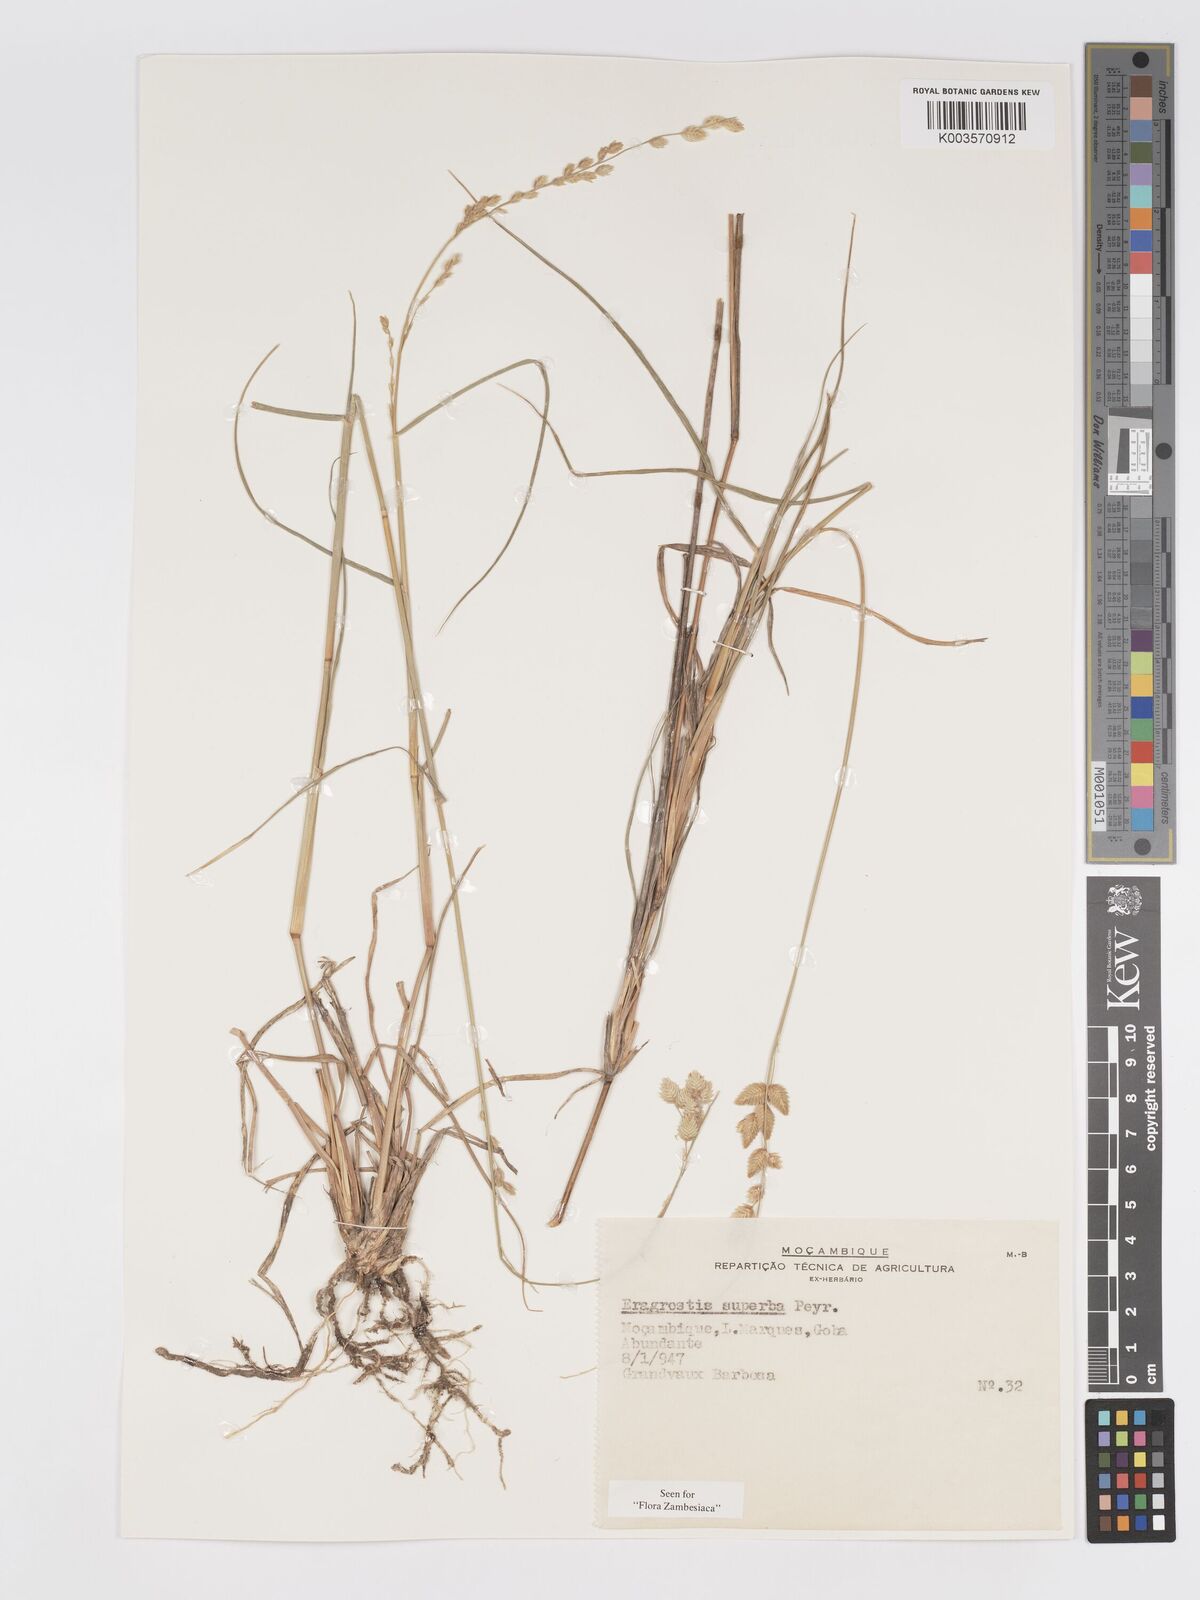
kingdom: Plantae
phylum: Tracheophyta
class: Liliopsida
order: Poales
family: Poaceae
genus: Eragrostis
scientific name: Eragrostis superba
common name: Wilman lovegrass
